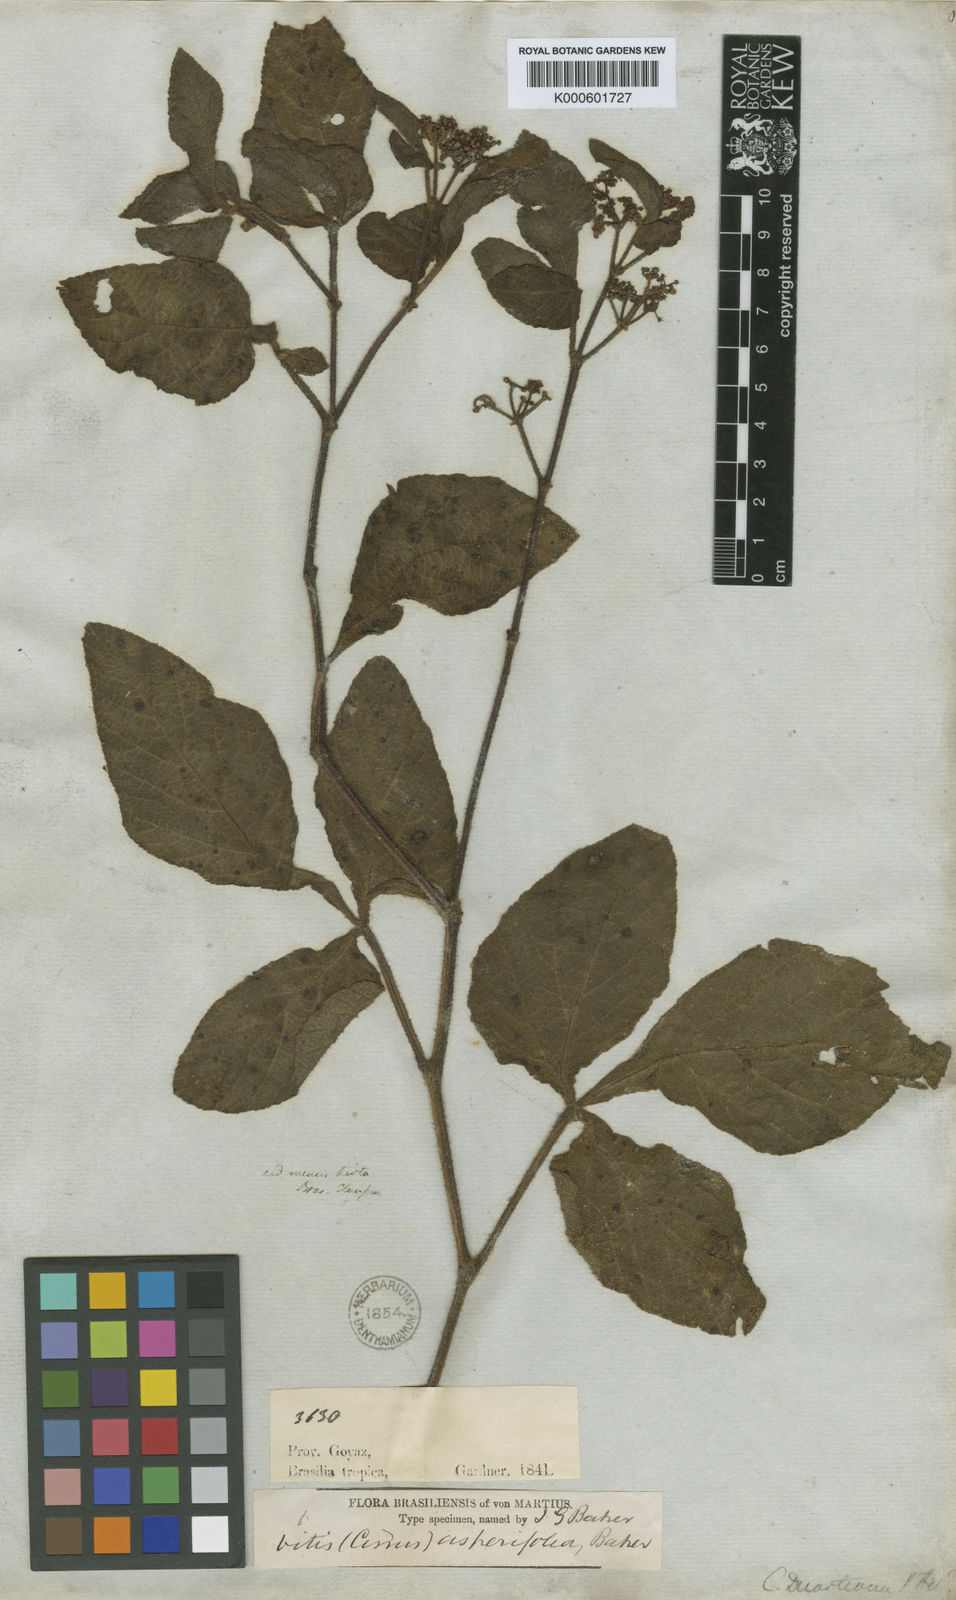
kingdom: Plantae
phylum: Tracheophyta
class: Magnoliopsida
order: Vitales
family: Vitaceae
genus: Cissus
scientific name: Cissus duarteana
